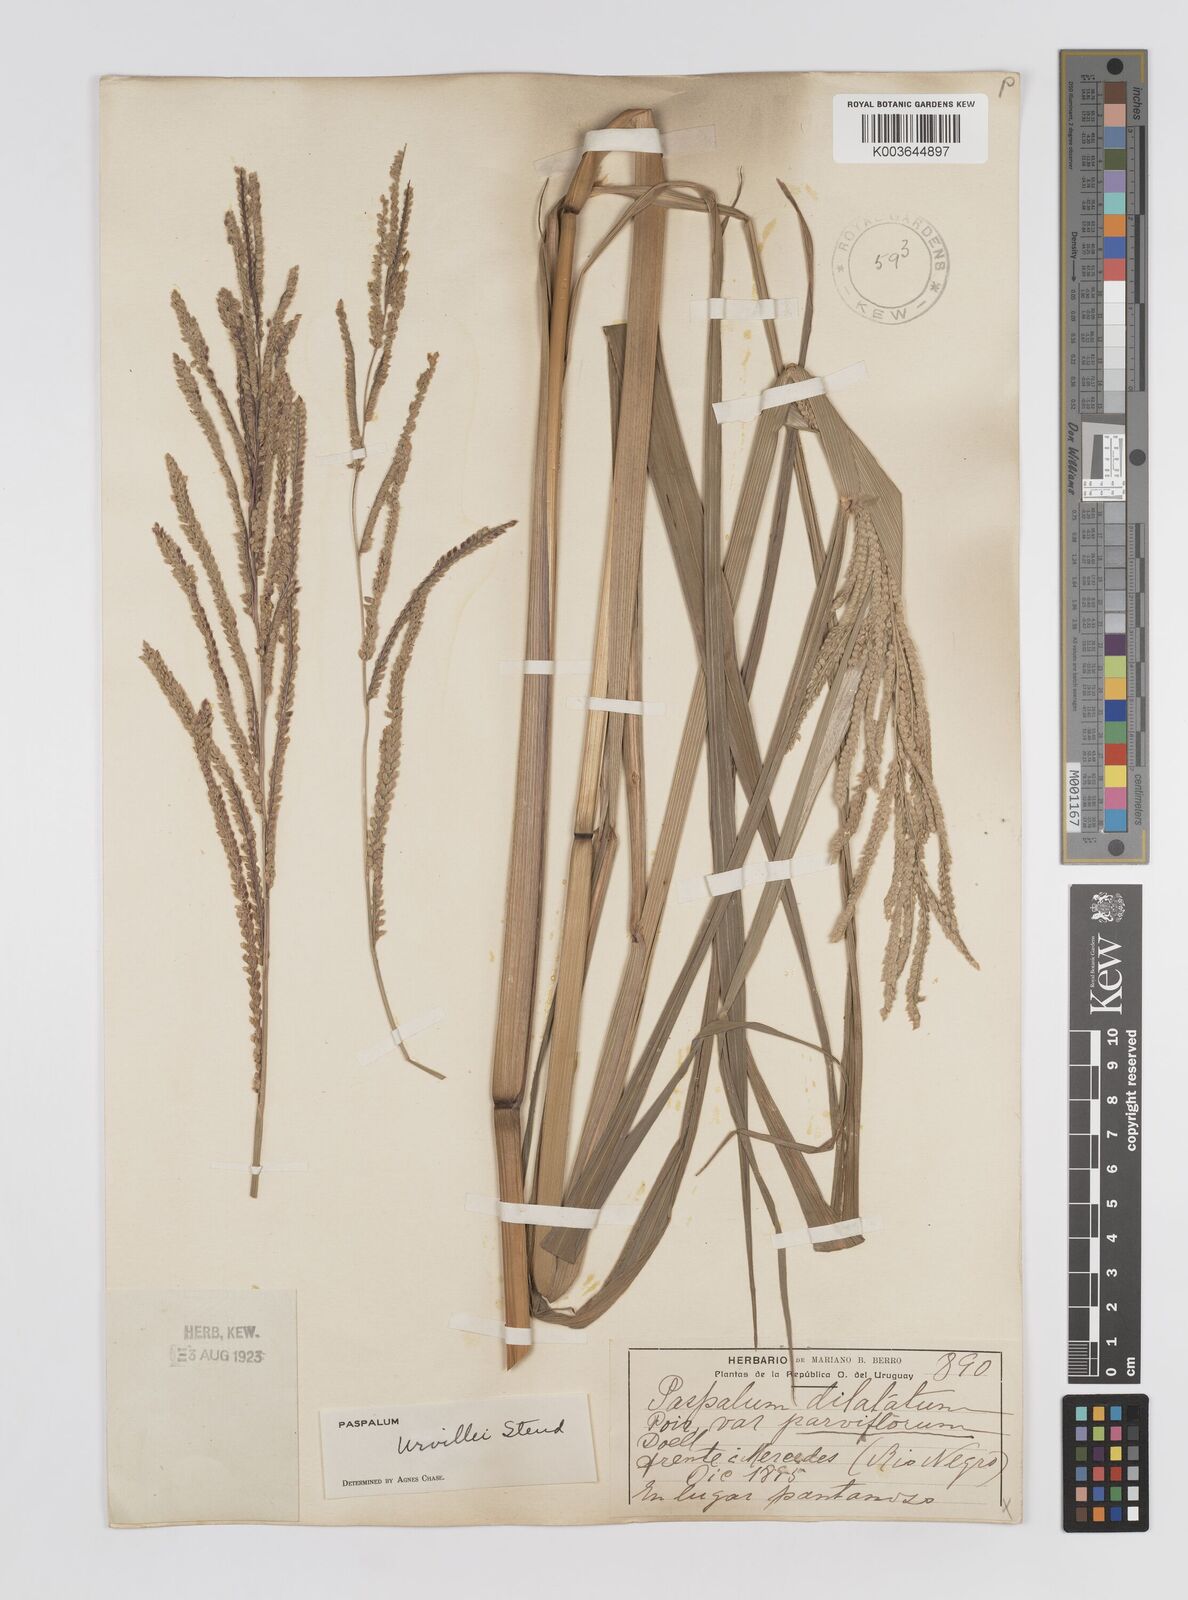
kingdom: Plantae
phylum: Tracheophyta
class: Liliopsida
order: Poales
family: Poaceae
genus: Paspalum
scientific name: Paspalum urvillei
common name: Vasey's grass
